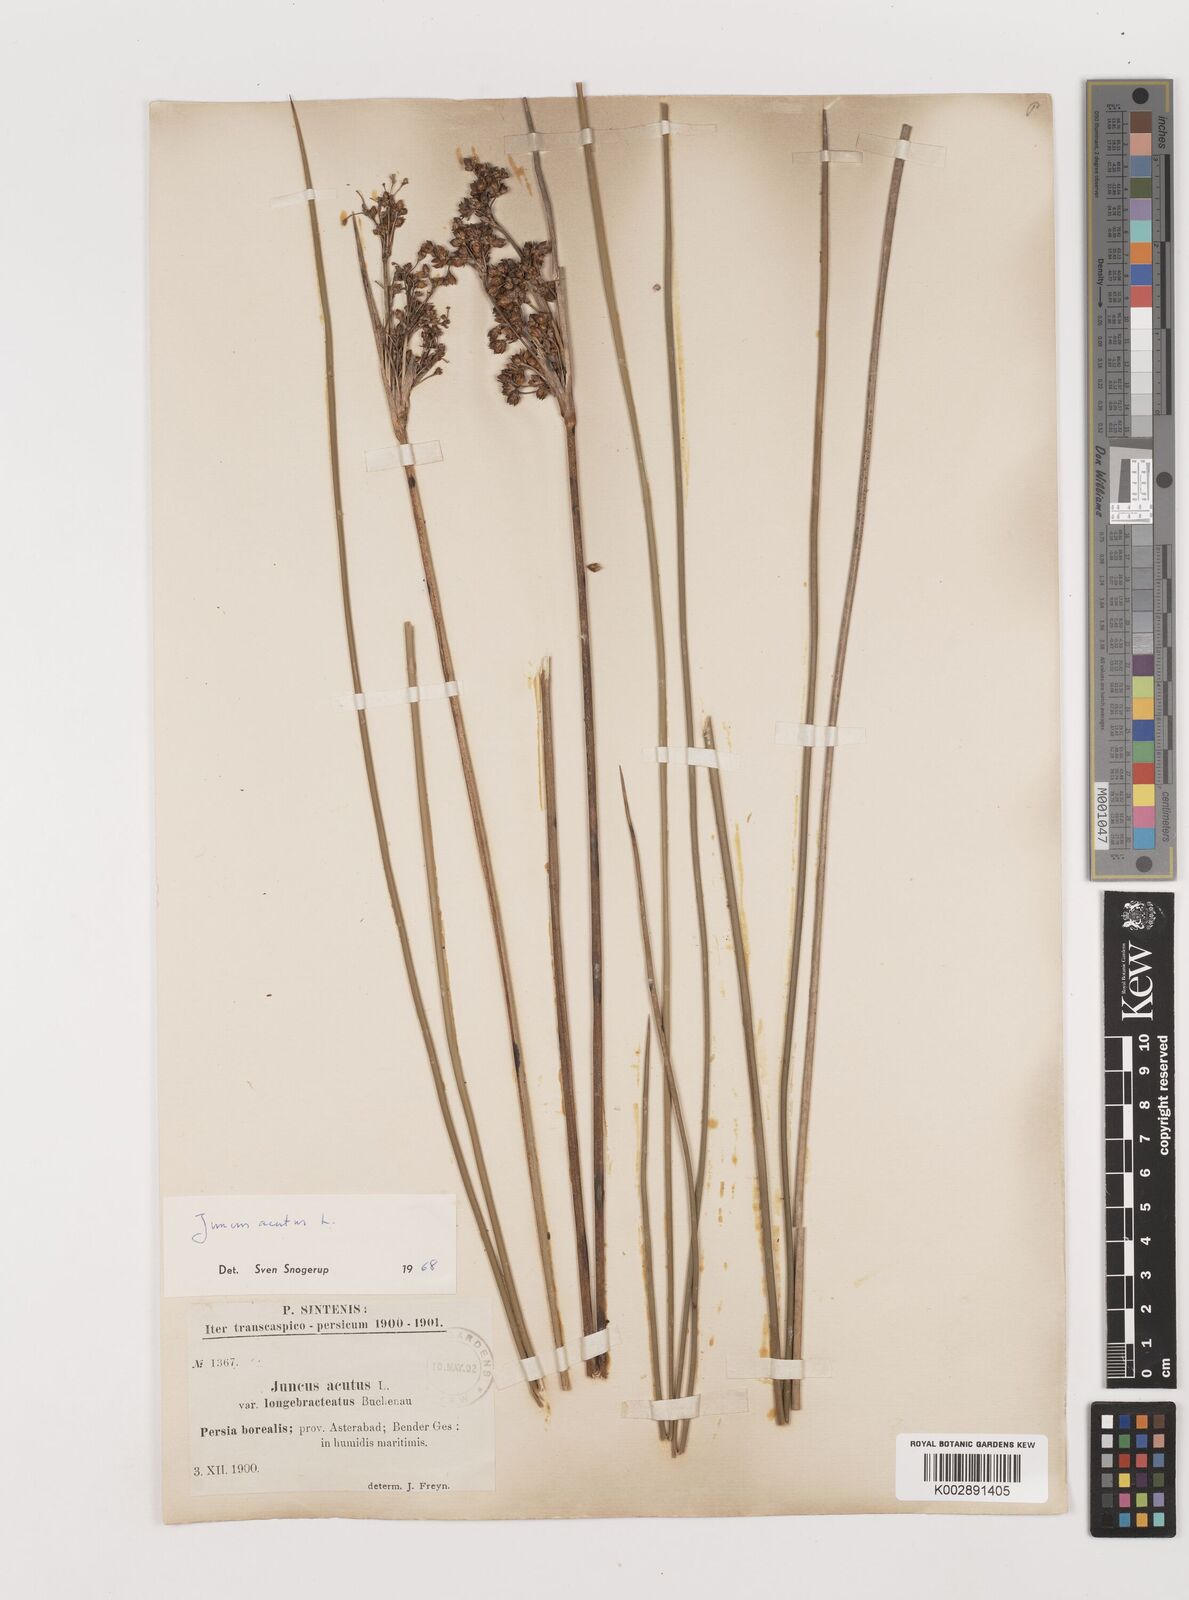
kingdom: Plantae
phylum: Tracheophyta
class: Liliopsida
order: Poales
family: Juncaceae
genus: Juncus
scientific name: Juncus acutus
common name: Sharp rush
